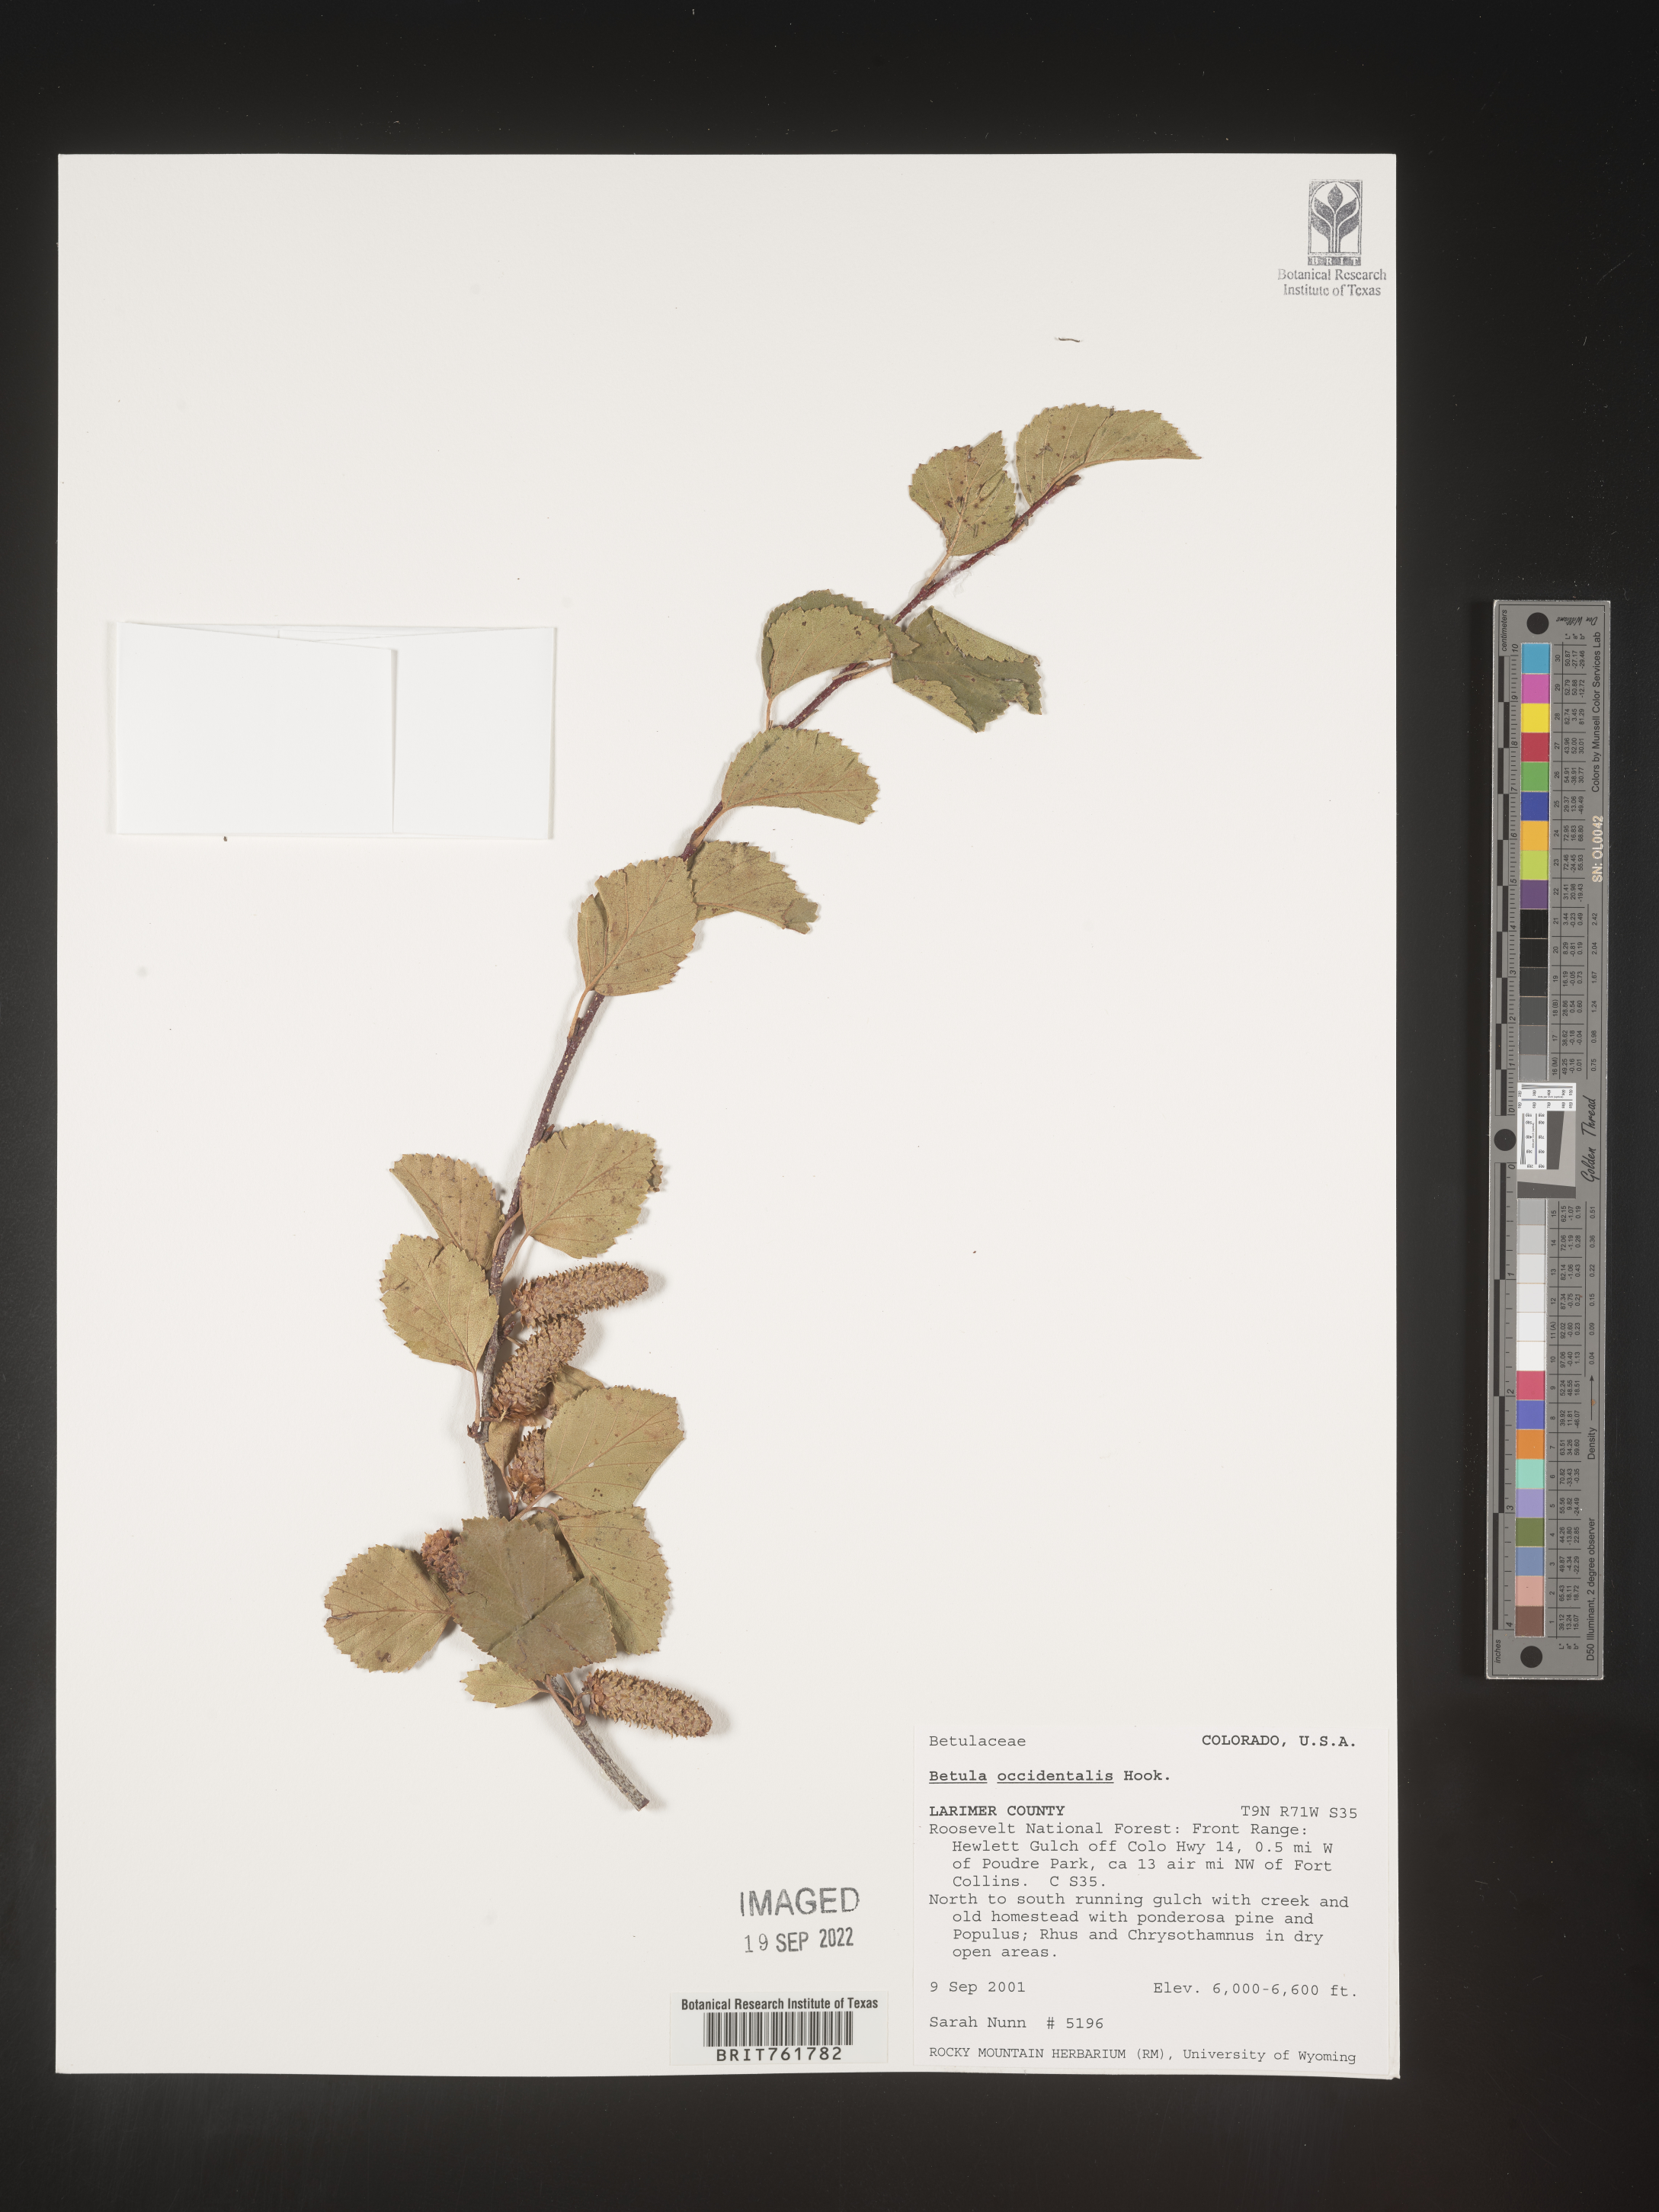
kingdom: Plantae
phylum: Tracheophyta
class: Magnoliopsida
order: Fagales
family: Betulaceae
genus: Betula
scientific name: Betula occidentalis
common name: River birch
